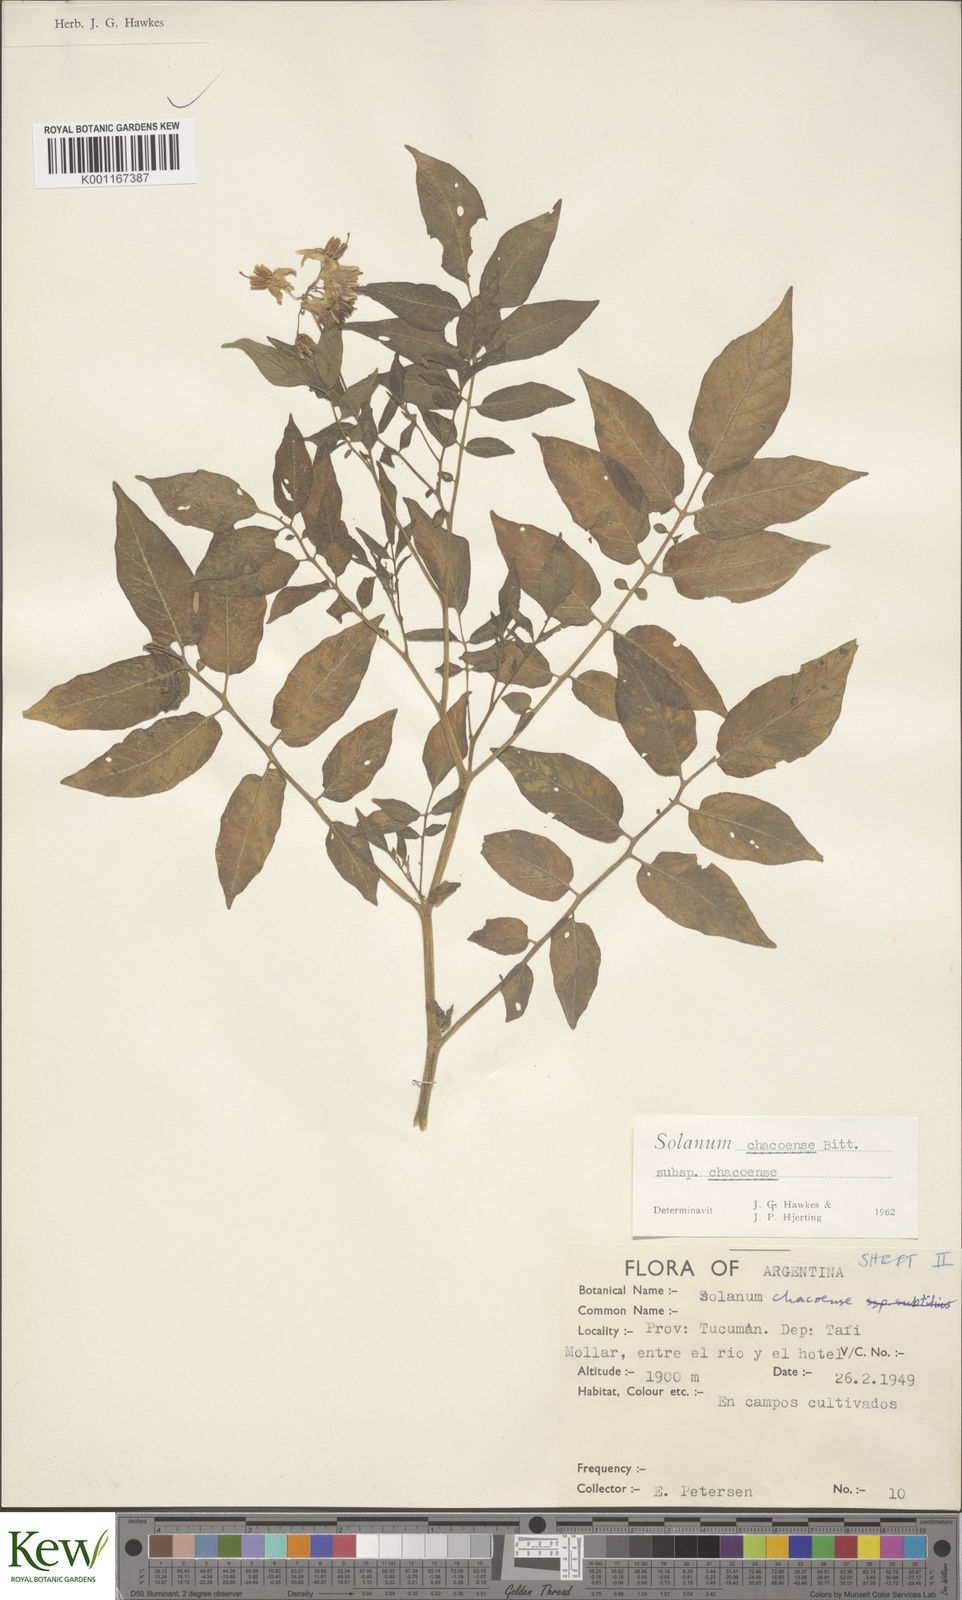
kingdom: Plantae
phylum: Tracheophyta
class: Magnoliopsida
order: Solanales
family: Solanaceae
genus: Solanum
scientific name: Solanum chacoense
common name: Chaco potato
